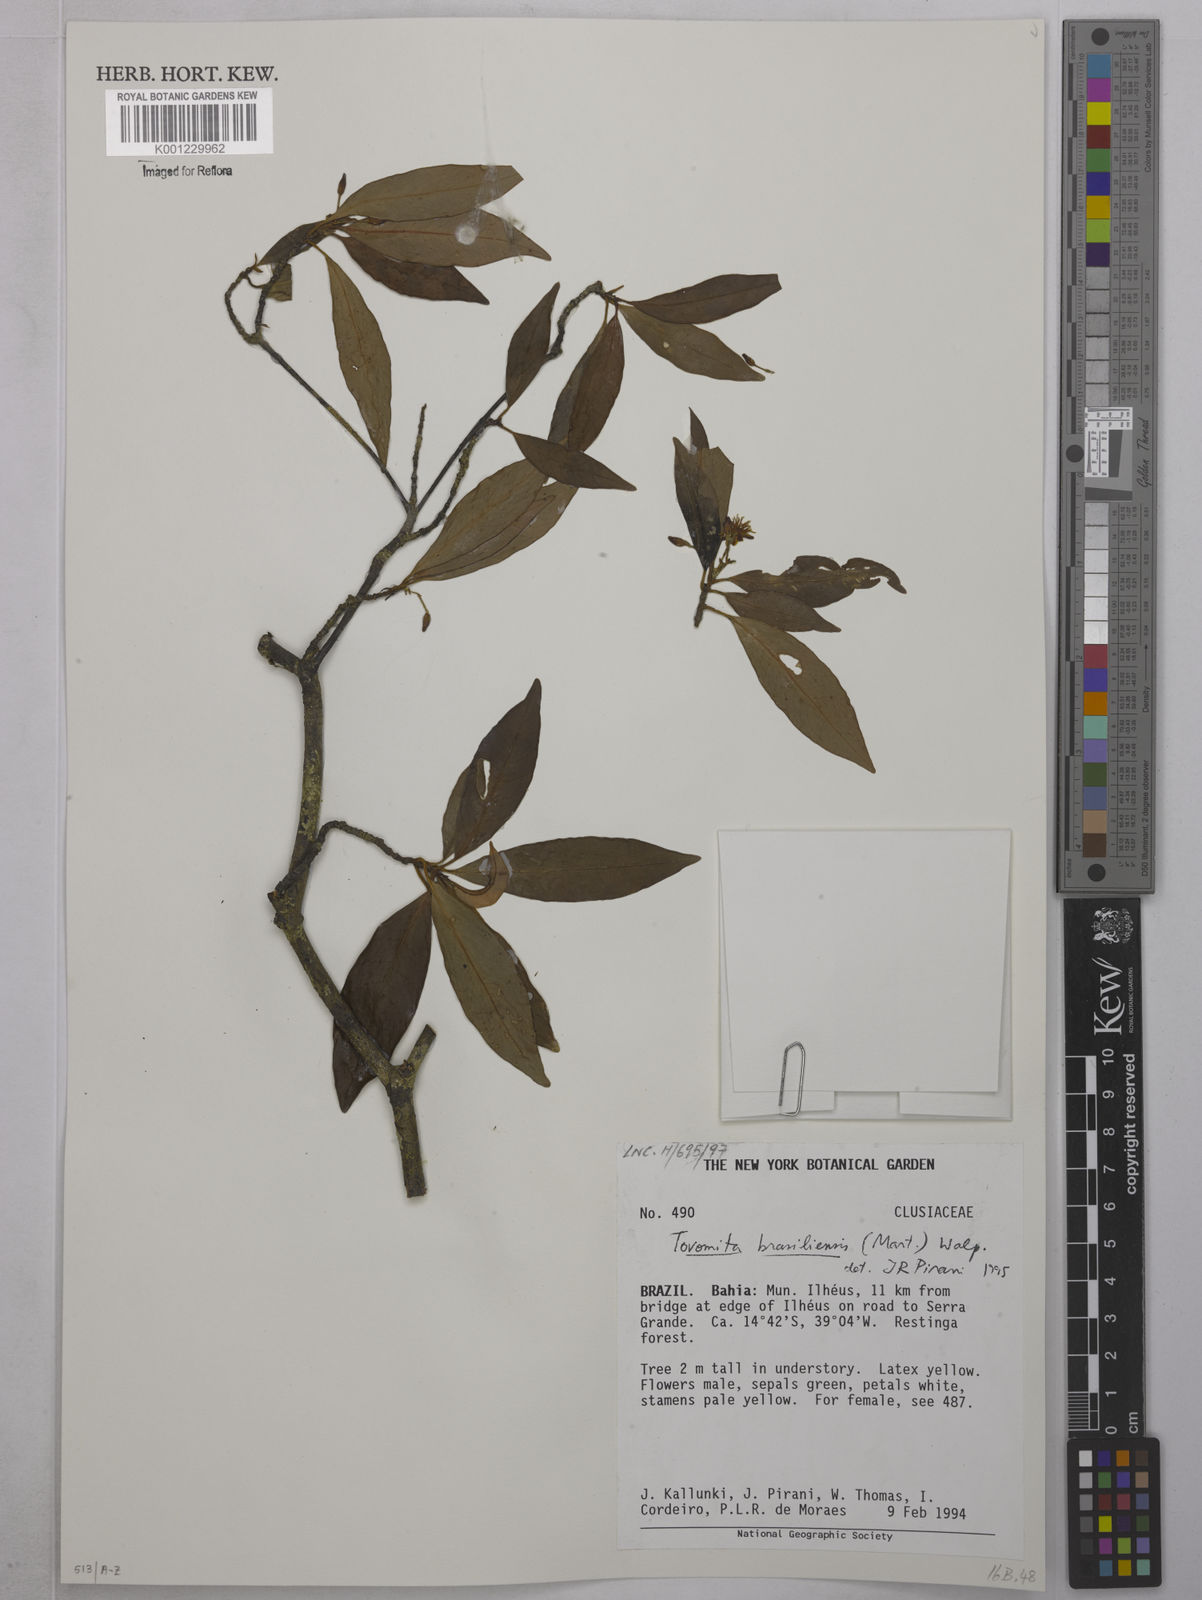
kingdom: Plantae
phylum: Tracheophyta
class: Magnoliopsida
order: Malpighiales
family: Clusiaceae
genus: Tovomita
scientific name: Tovomita
